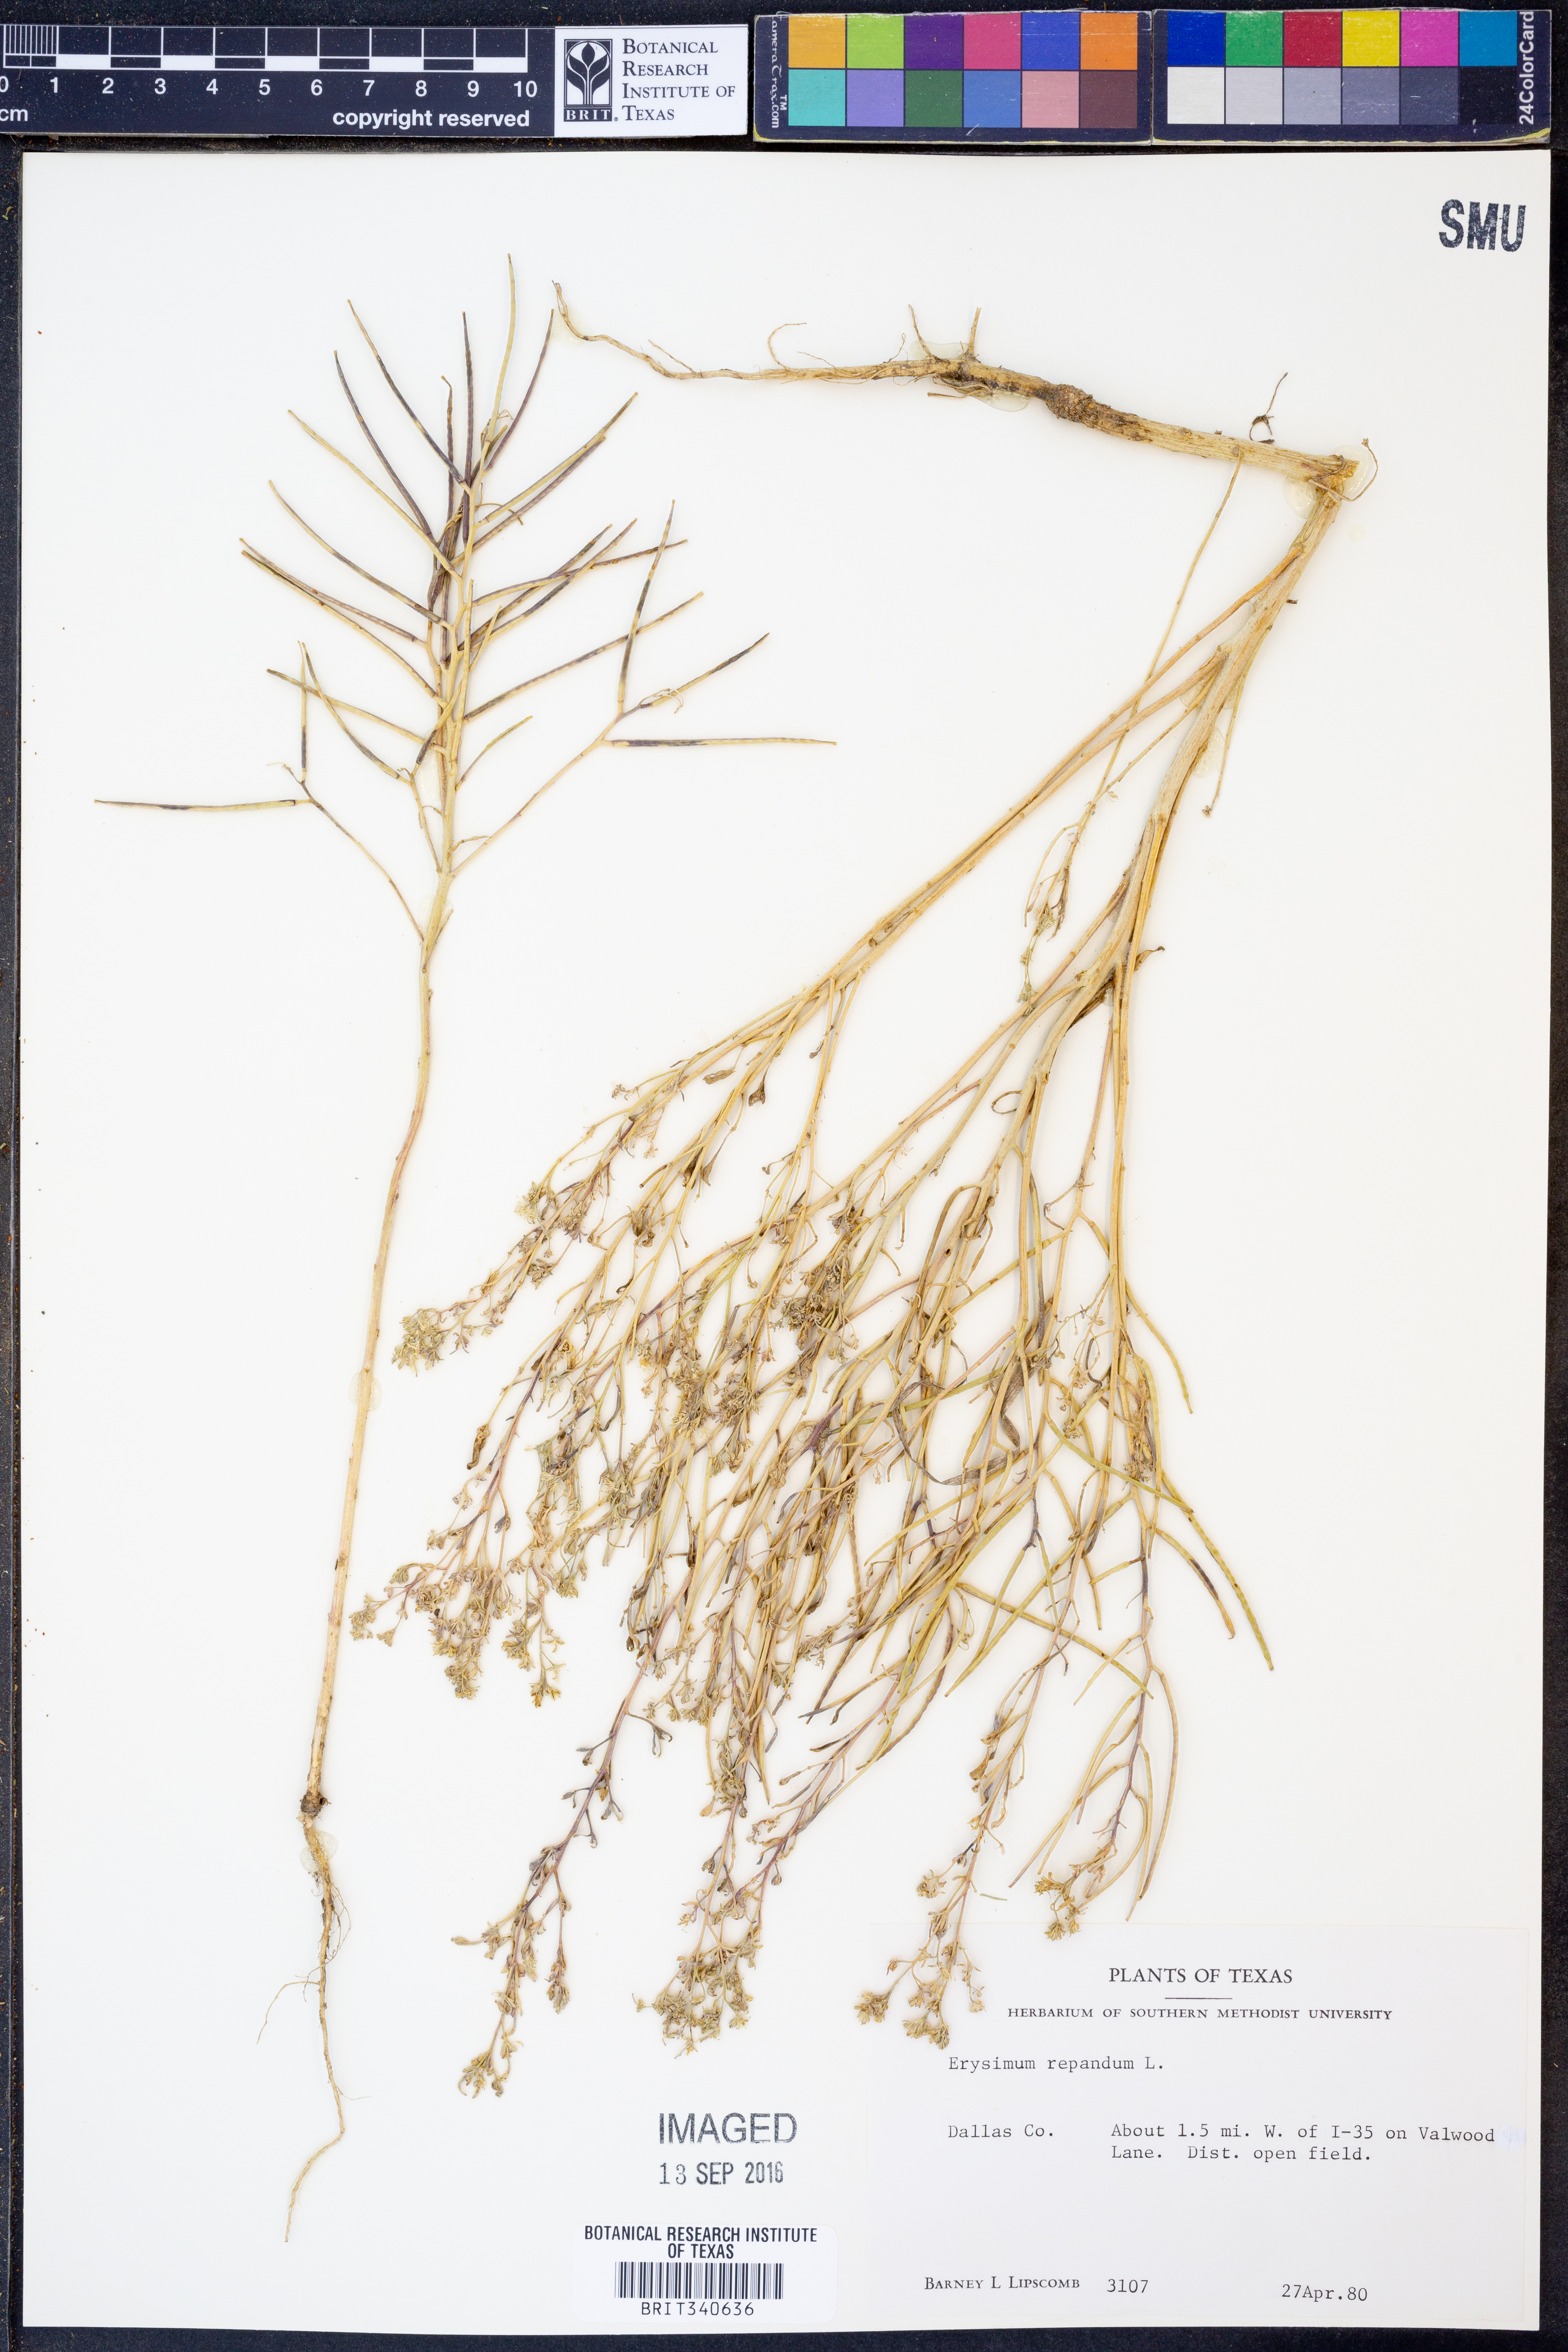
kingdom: Plantae
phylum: Tracheophyta
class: Magnoliopsida
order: Brassicales
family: Brassicaceae
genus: Erysimum
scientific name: Erysimum repandum
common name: Spreading wallflower
